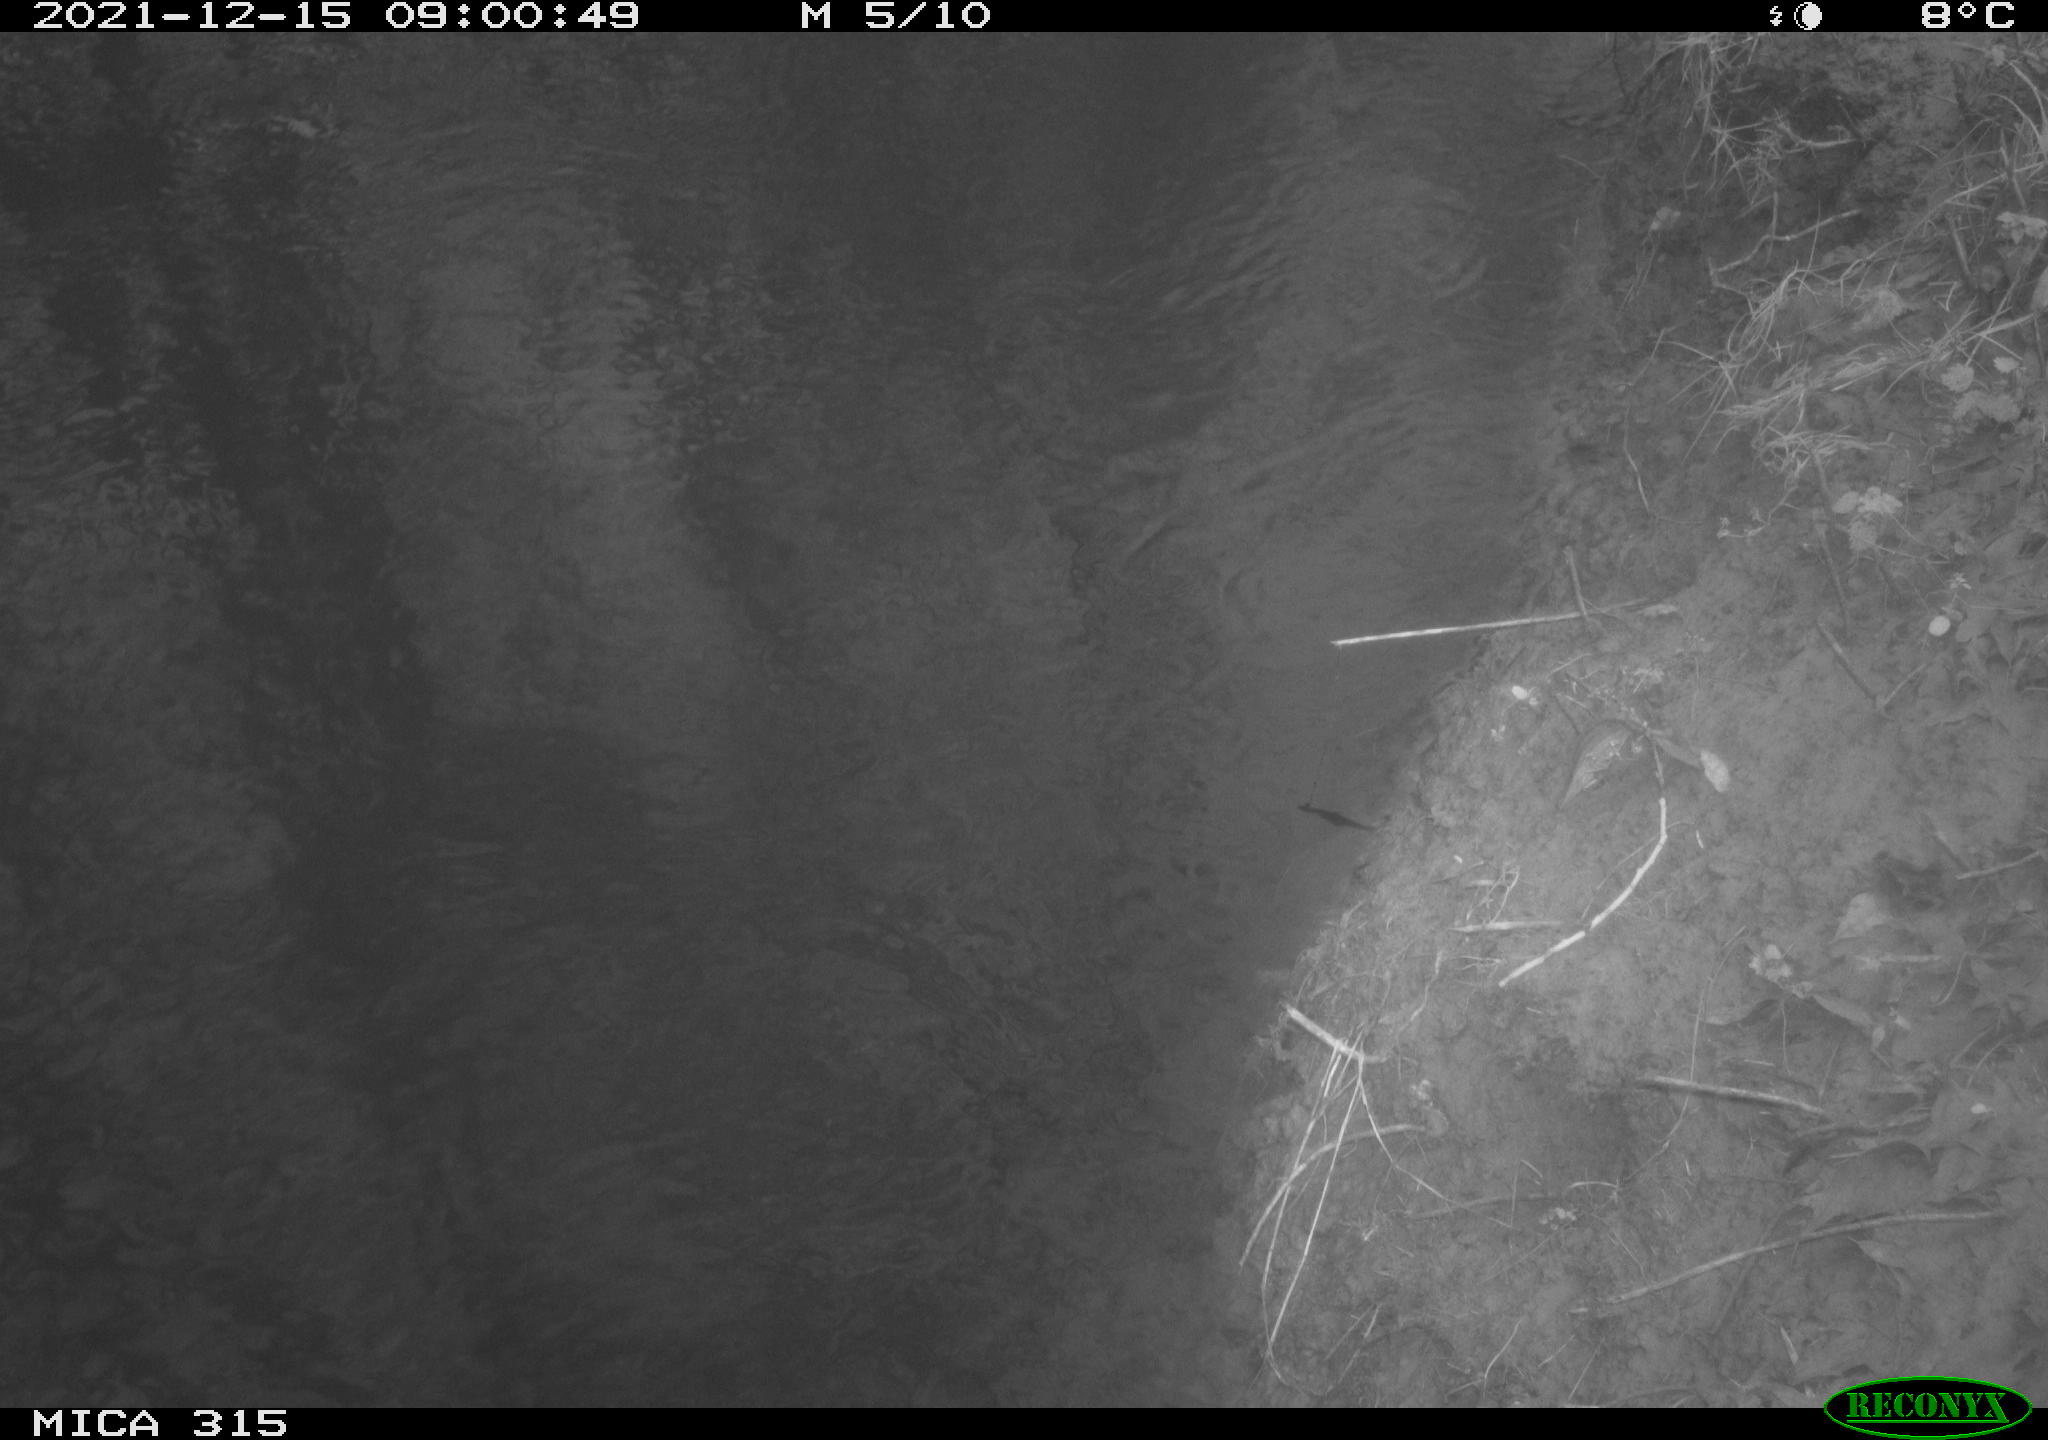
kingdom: Animalia
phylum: Chordata
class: Aves
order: Gruiformes
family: Rallidae
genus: Gallinula
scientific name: Gallinula chloropus
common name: Common moorhen
